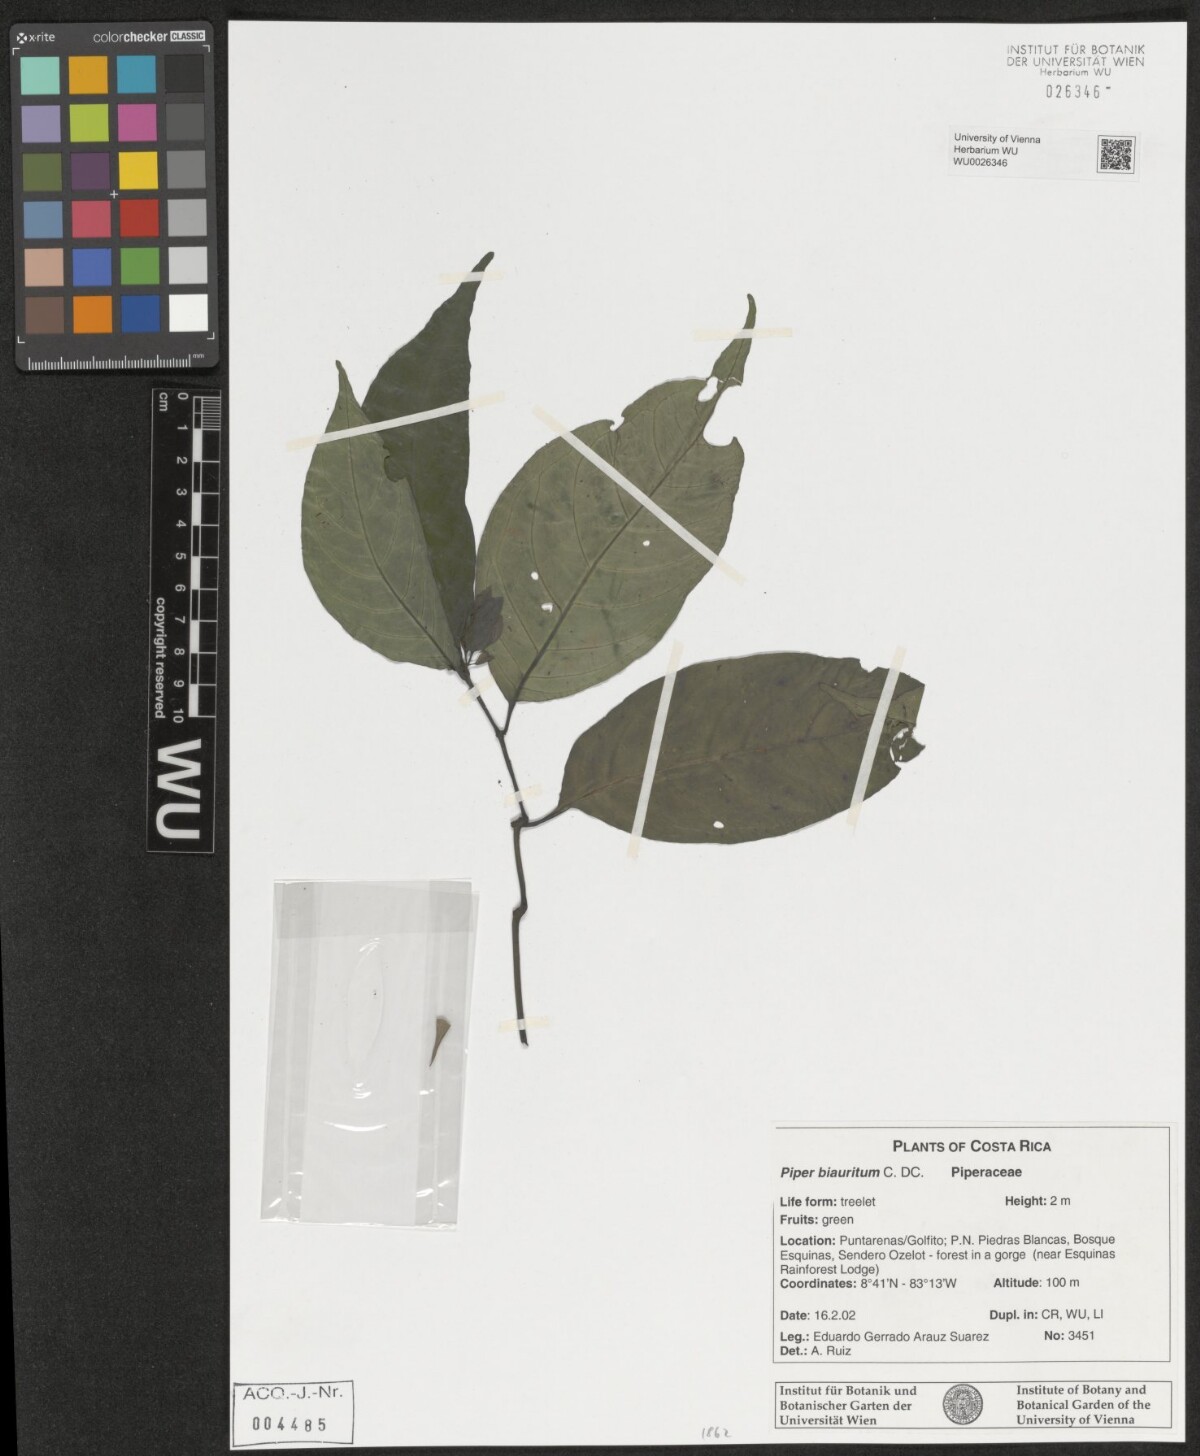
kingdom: Plantae
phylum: Tracheophyta
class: Magnoliopsida
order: Piperales
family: Piperaceae
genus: Piper
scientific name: Piper biauritum
